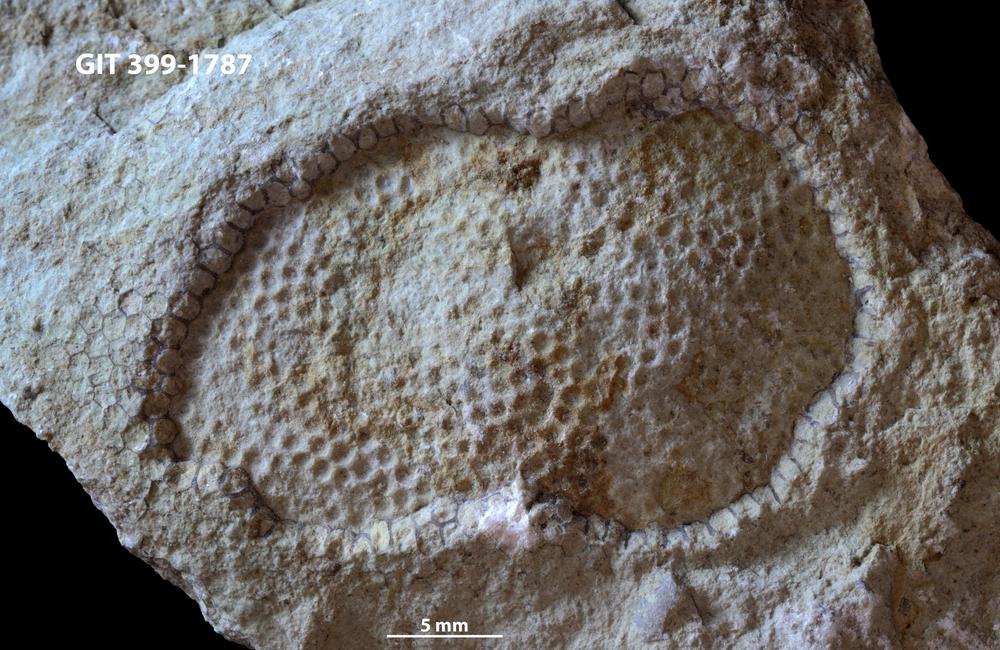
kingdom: Plantae
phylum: Chlorophyta
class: Ulvophyceae
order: Cyclocrinales
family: Cyclocrinaceae
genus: Mastopora
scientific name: Mastopora concava
